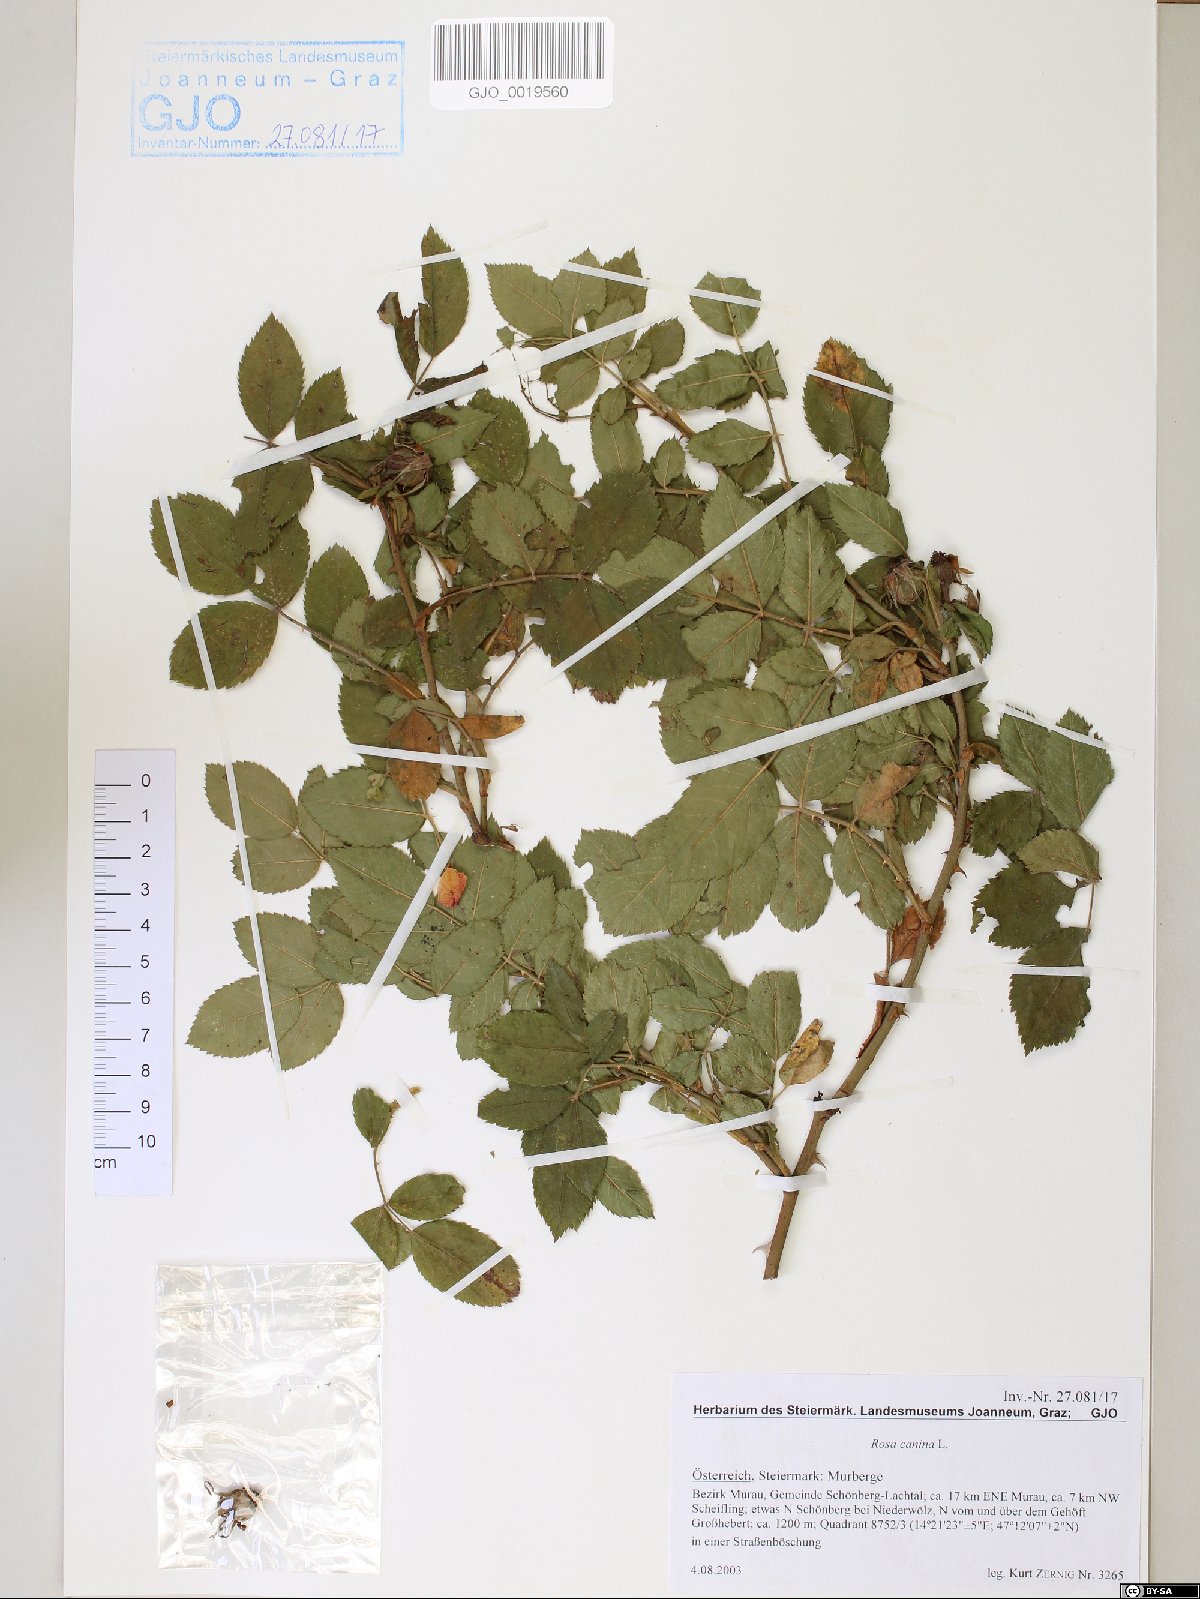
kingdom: Plantae
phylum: Tracheophyta
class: Magnoliopsida
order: Rosales
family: Rosaceae
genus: Rosa
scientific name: Rosa canina
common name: Dog rose
